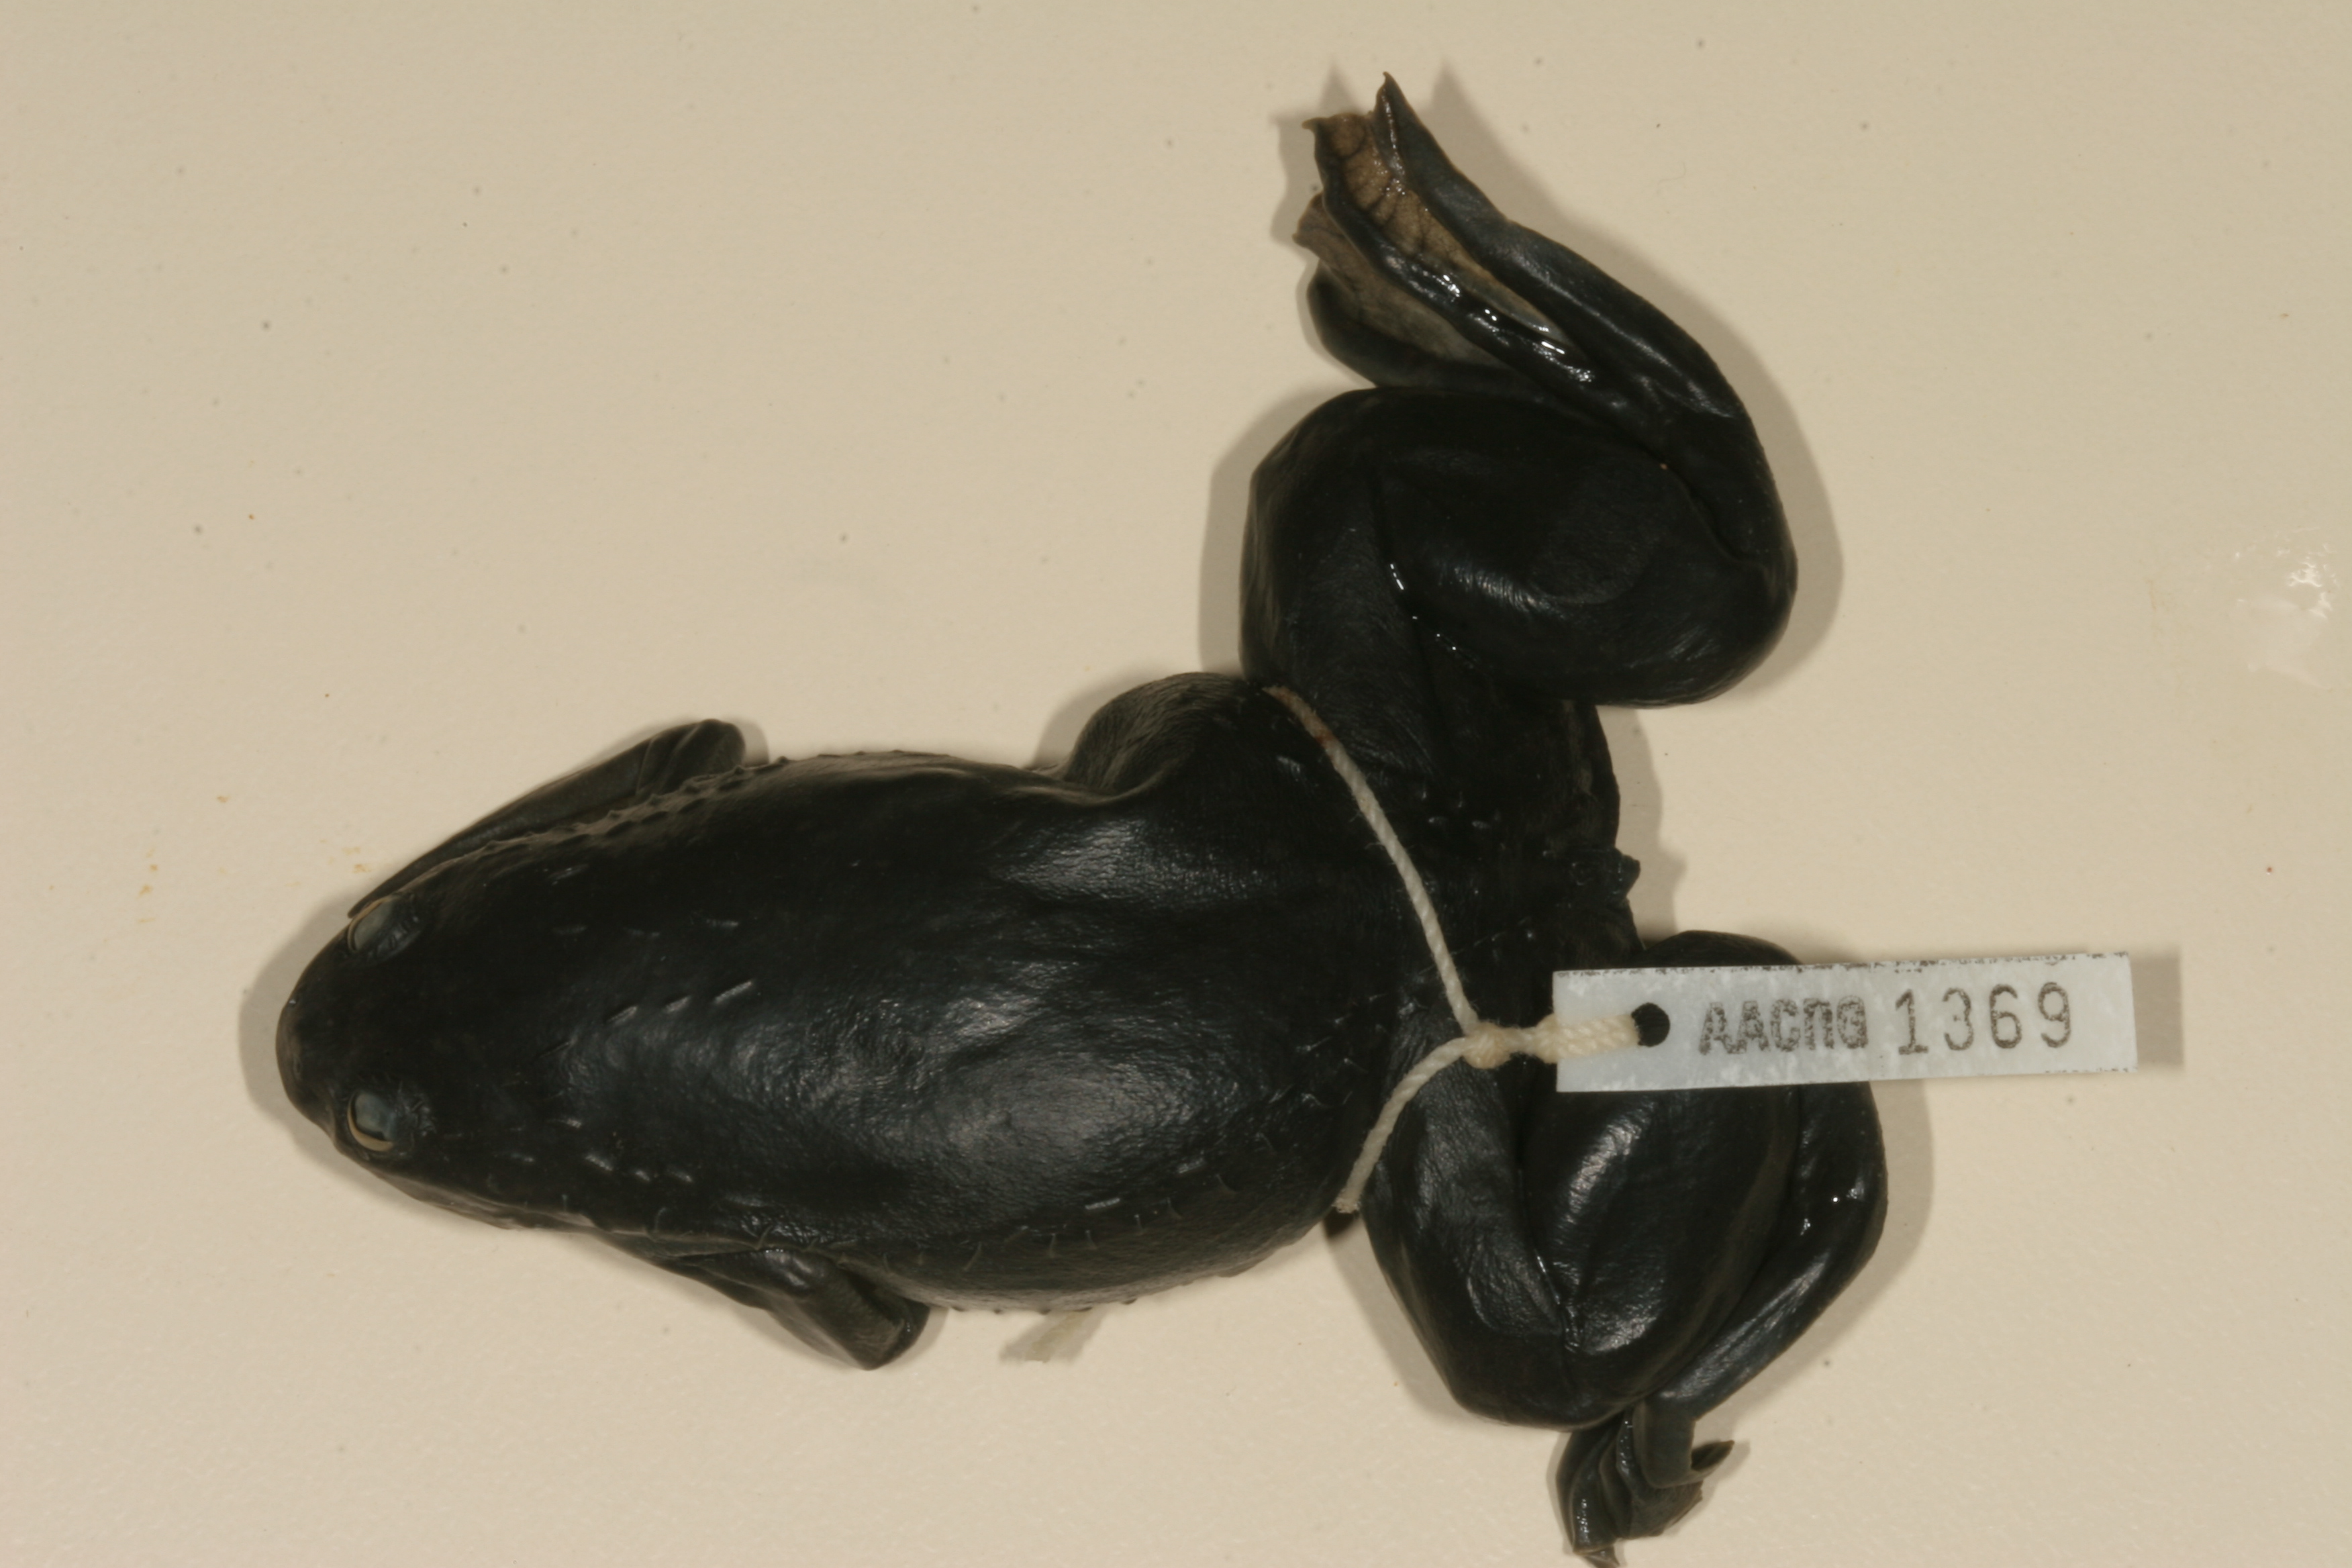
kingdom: Animalia
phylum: Chordata
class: Amphibia
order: Anura
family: Pipidae
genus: Xenopus
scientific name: Xenopus laevis
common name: African clawed frog
